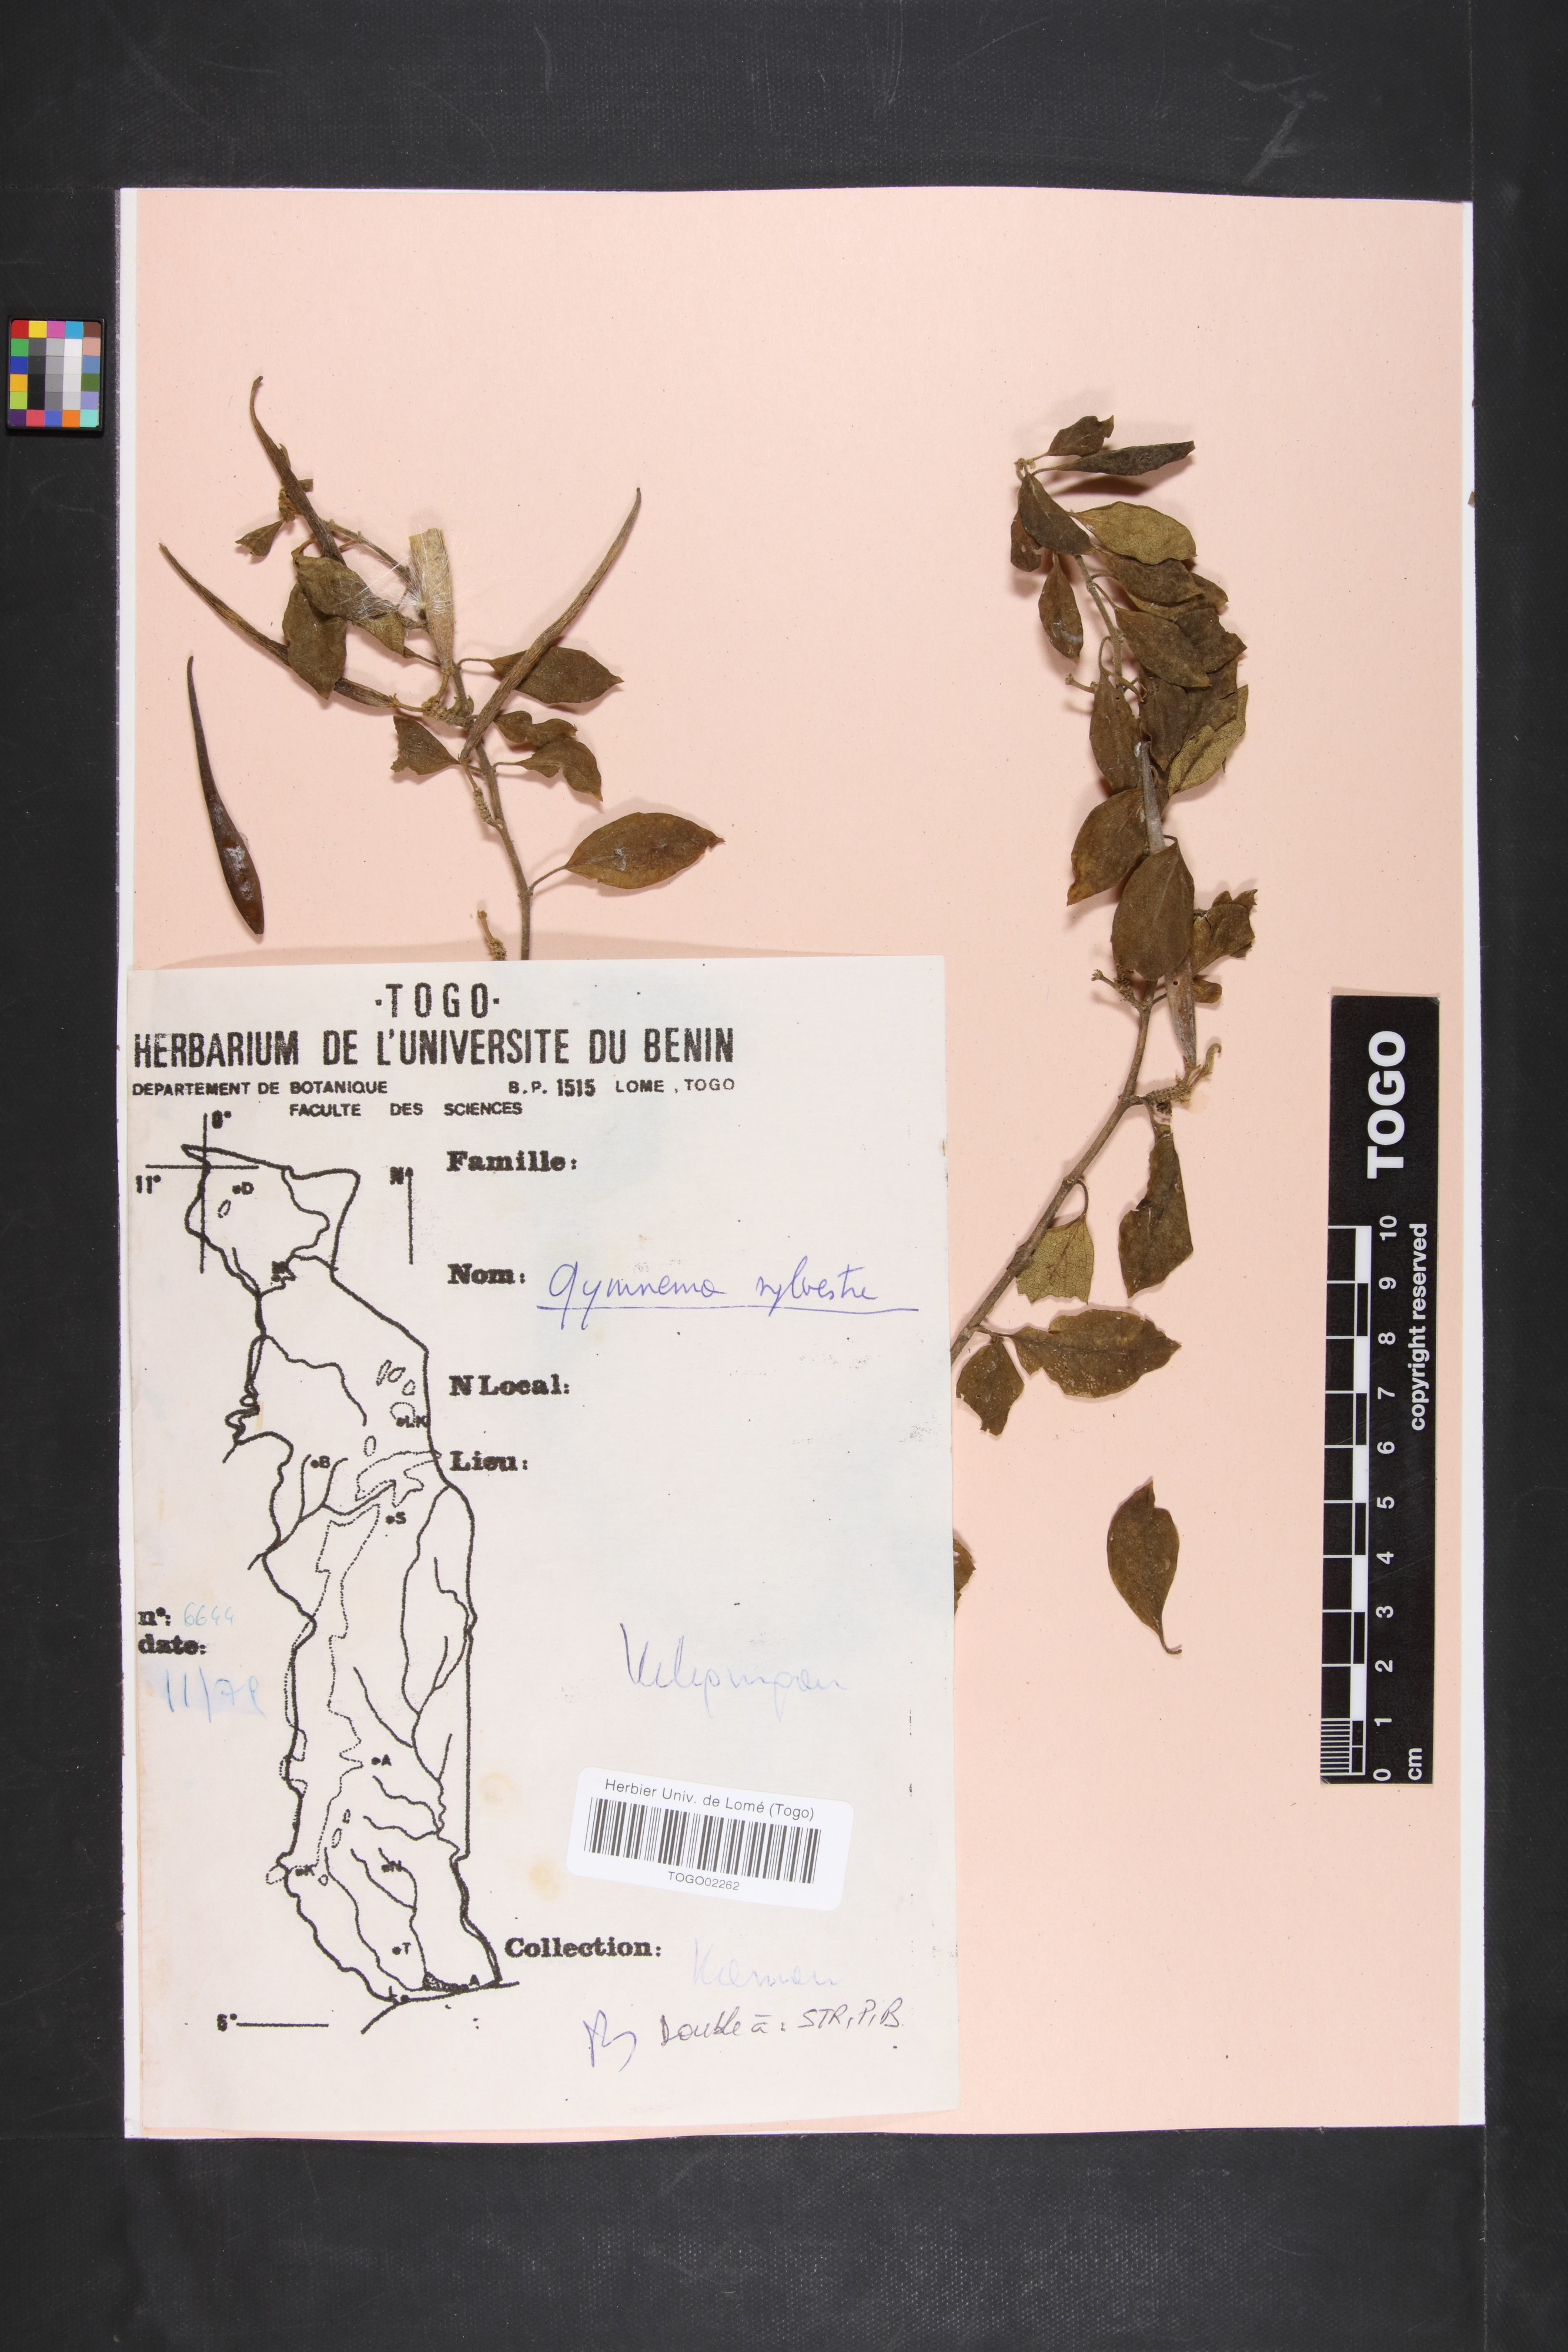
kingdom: Plantae
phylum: Tracheophyta
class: Magnoliopsida
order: Gentianales
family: Apocynaceae
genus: Gymnema
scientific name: Gymnema sylvestre
